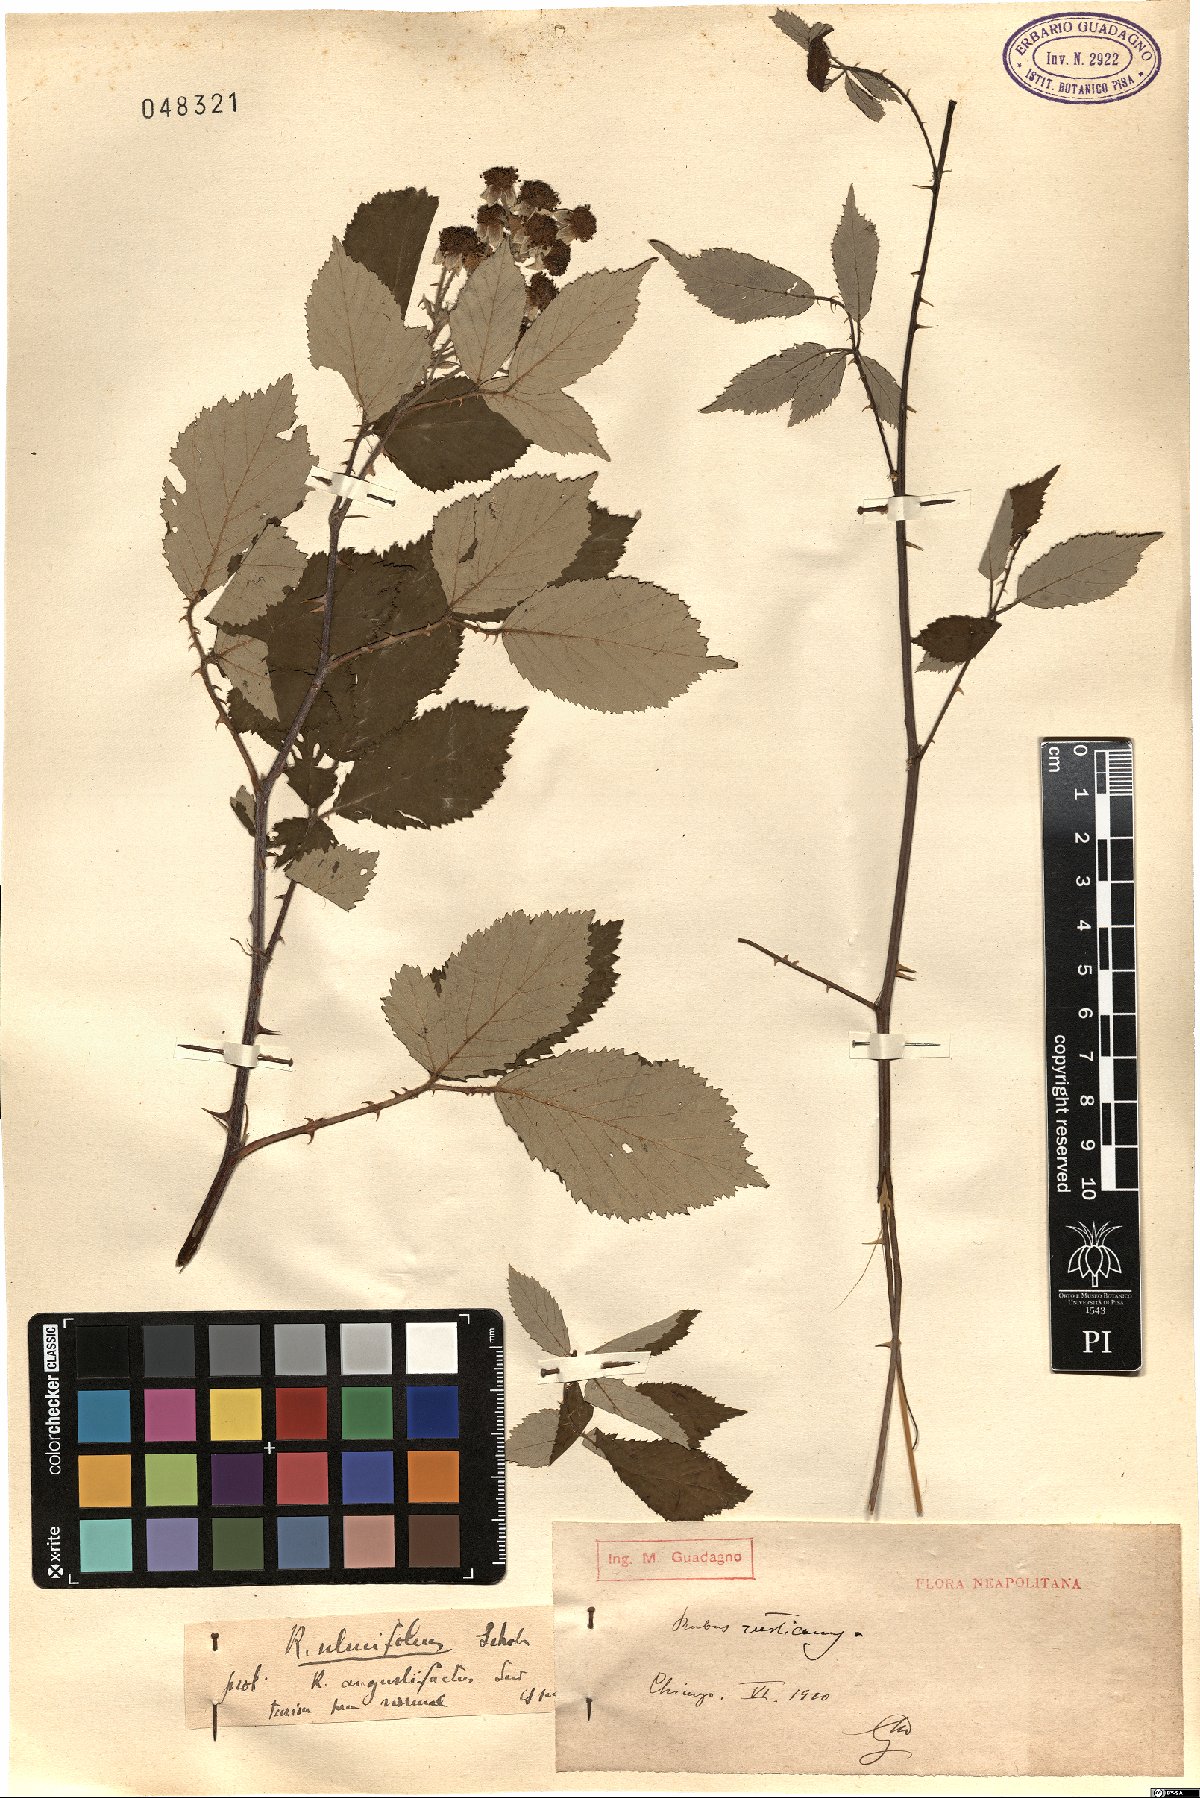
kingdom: Plantae
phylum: Tracheophyta
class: Magnoliopsida
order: Rosales
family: Rosaceae
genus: Rubus
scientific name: Rubus ulmifolius
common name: Elmleaf blackberry
